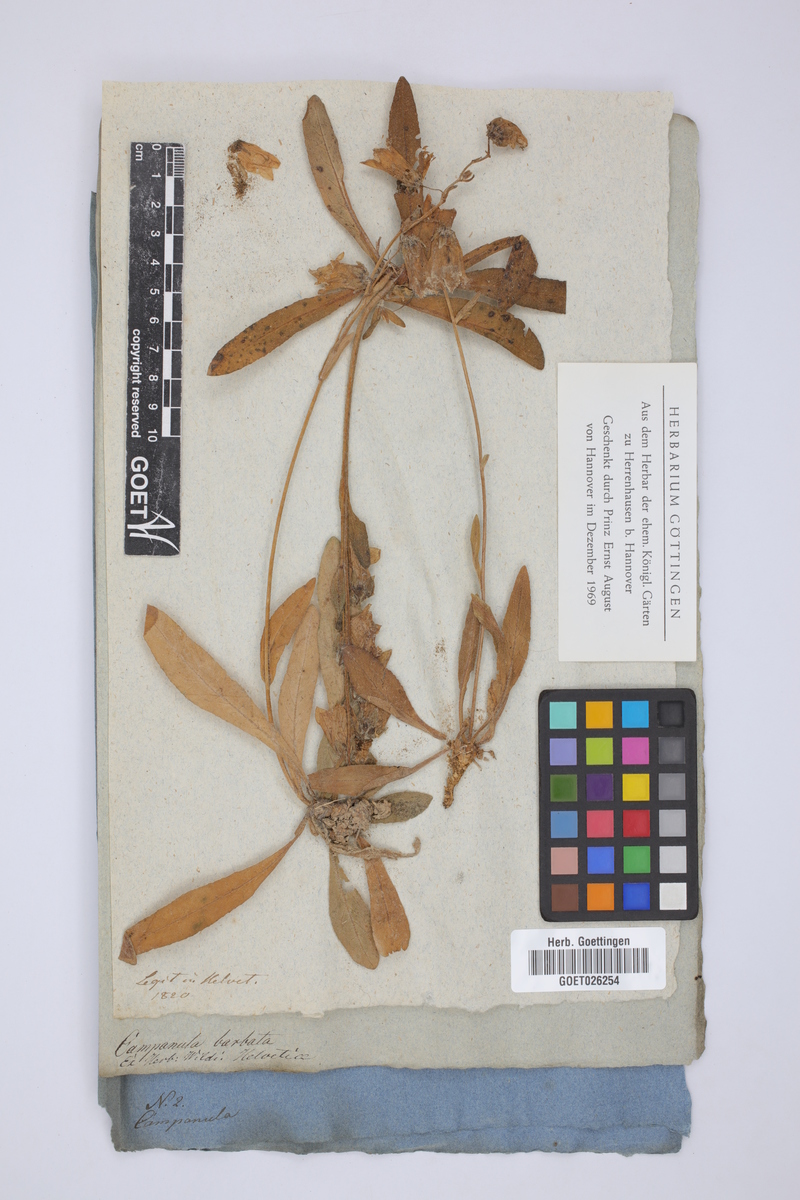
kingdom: Plantae
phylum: Tracheophyta
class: Magnoliopsida
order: Asterales
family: Campanulaceae
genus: Campanula
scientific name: Campanula barbata
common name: Bearded bellflower
